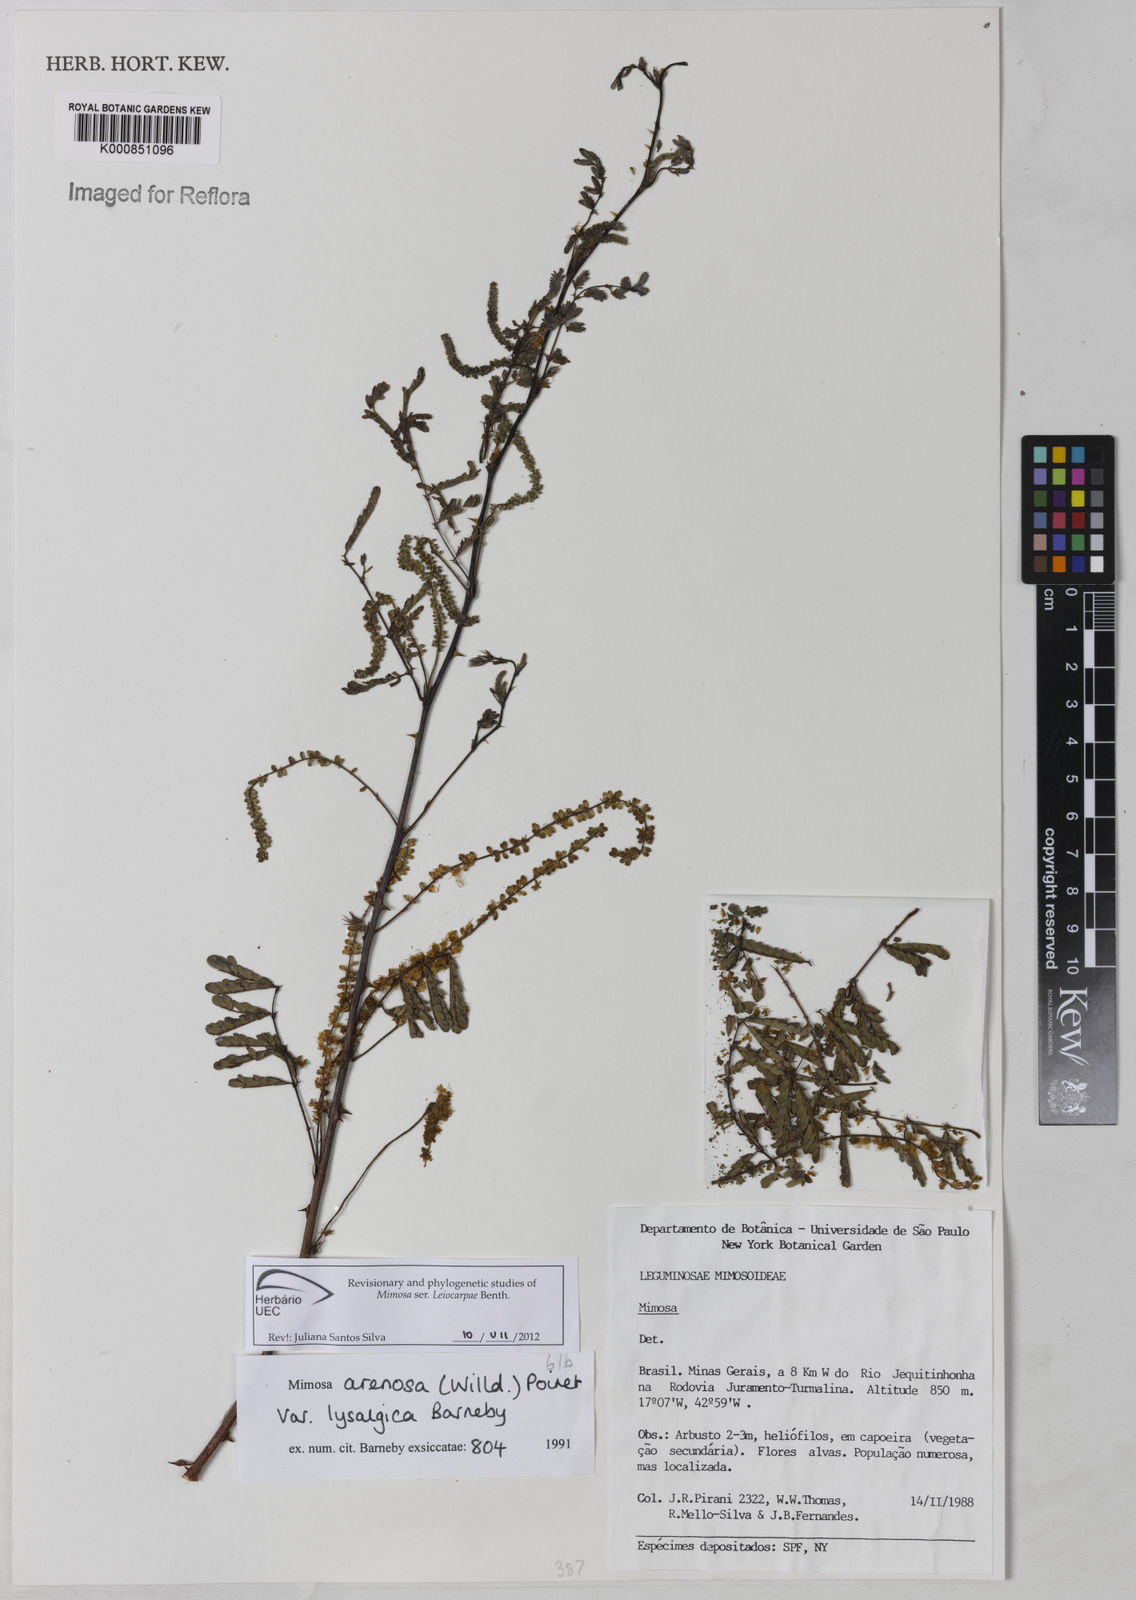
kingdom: Plantae
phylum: Tracheophyta
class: Magnoliopsida
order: Fabales
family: Fabaceae
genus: Mimosa
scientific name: Mimosa arenosa
